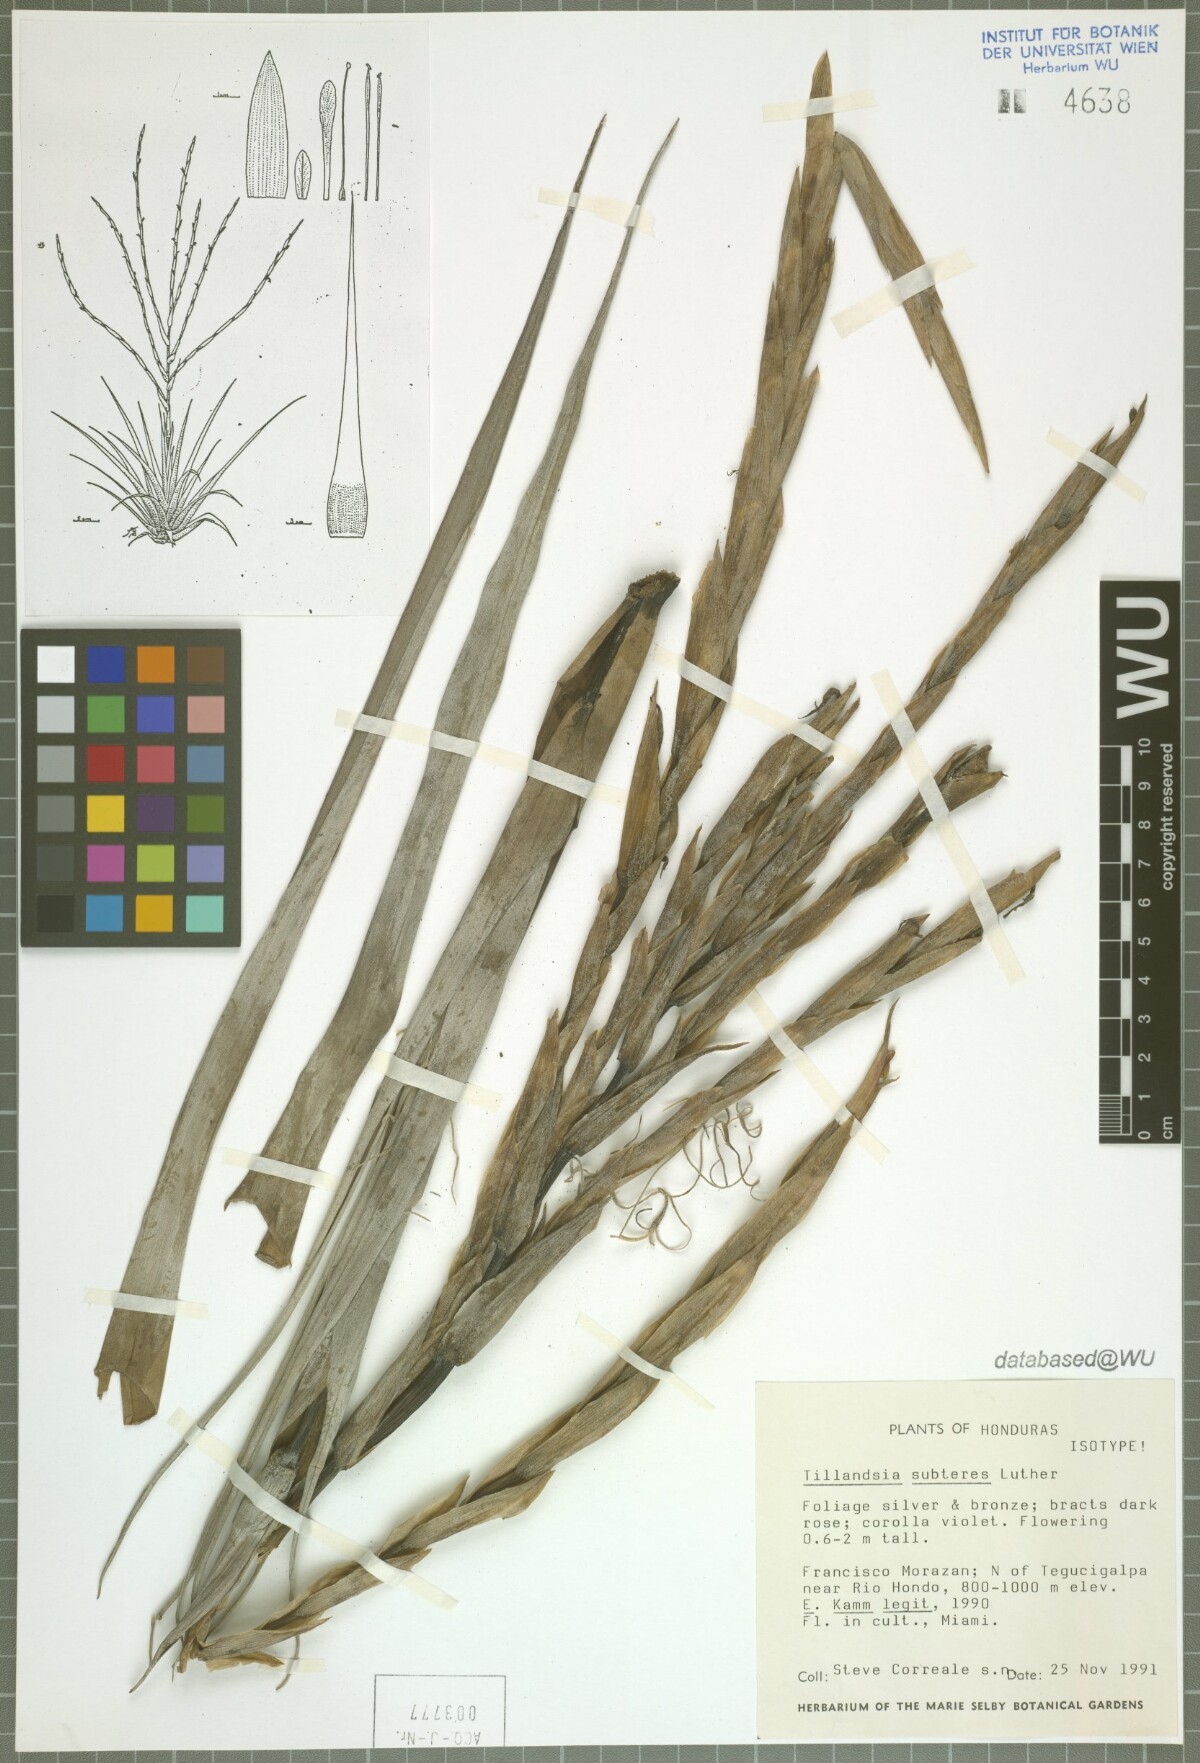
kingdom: Plantae
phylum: Tracheophyta
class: Liliopsida
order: Poales
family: Bromeliaceae
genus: Tillandsia
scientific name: Tillandsia subteres
